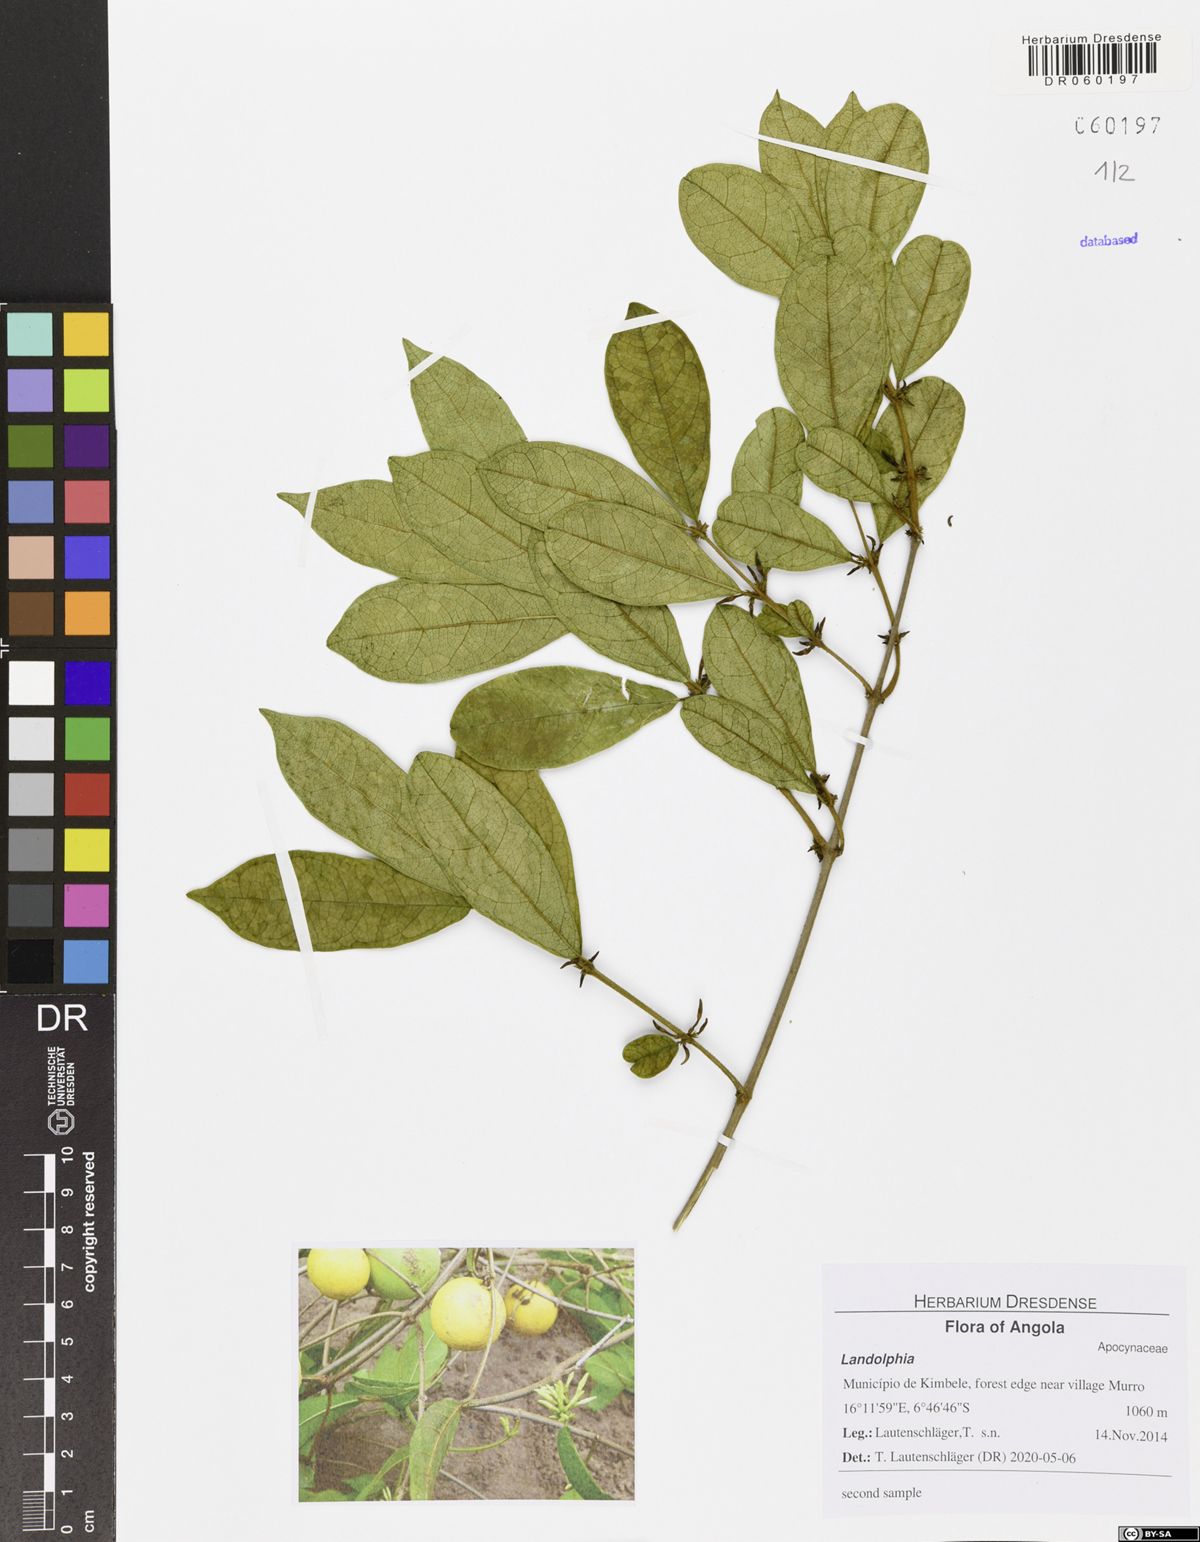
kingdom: Plantae
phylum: Tracheophyta
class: Magnoliopsida
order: Gentianales
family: Apocynaceae
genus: Landolphia
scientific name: Landolphia villosa
